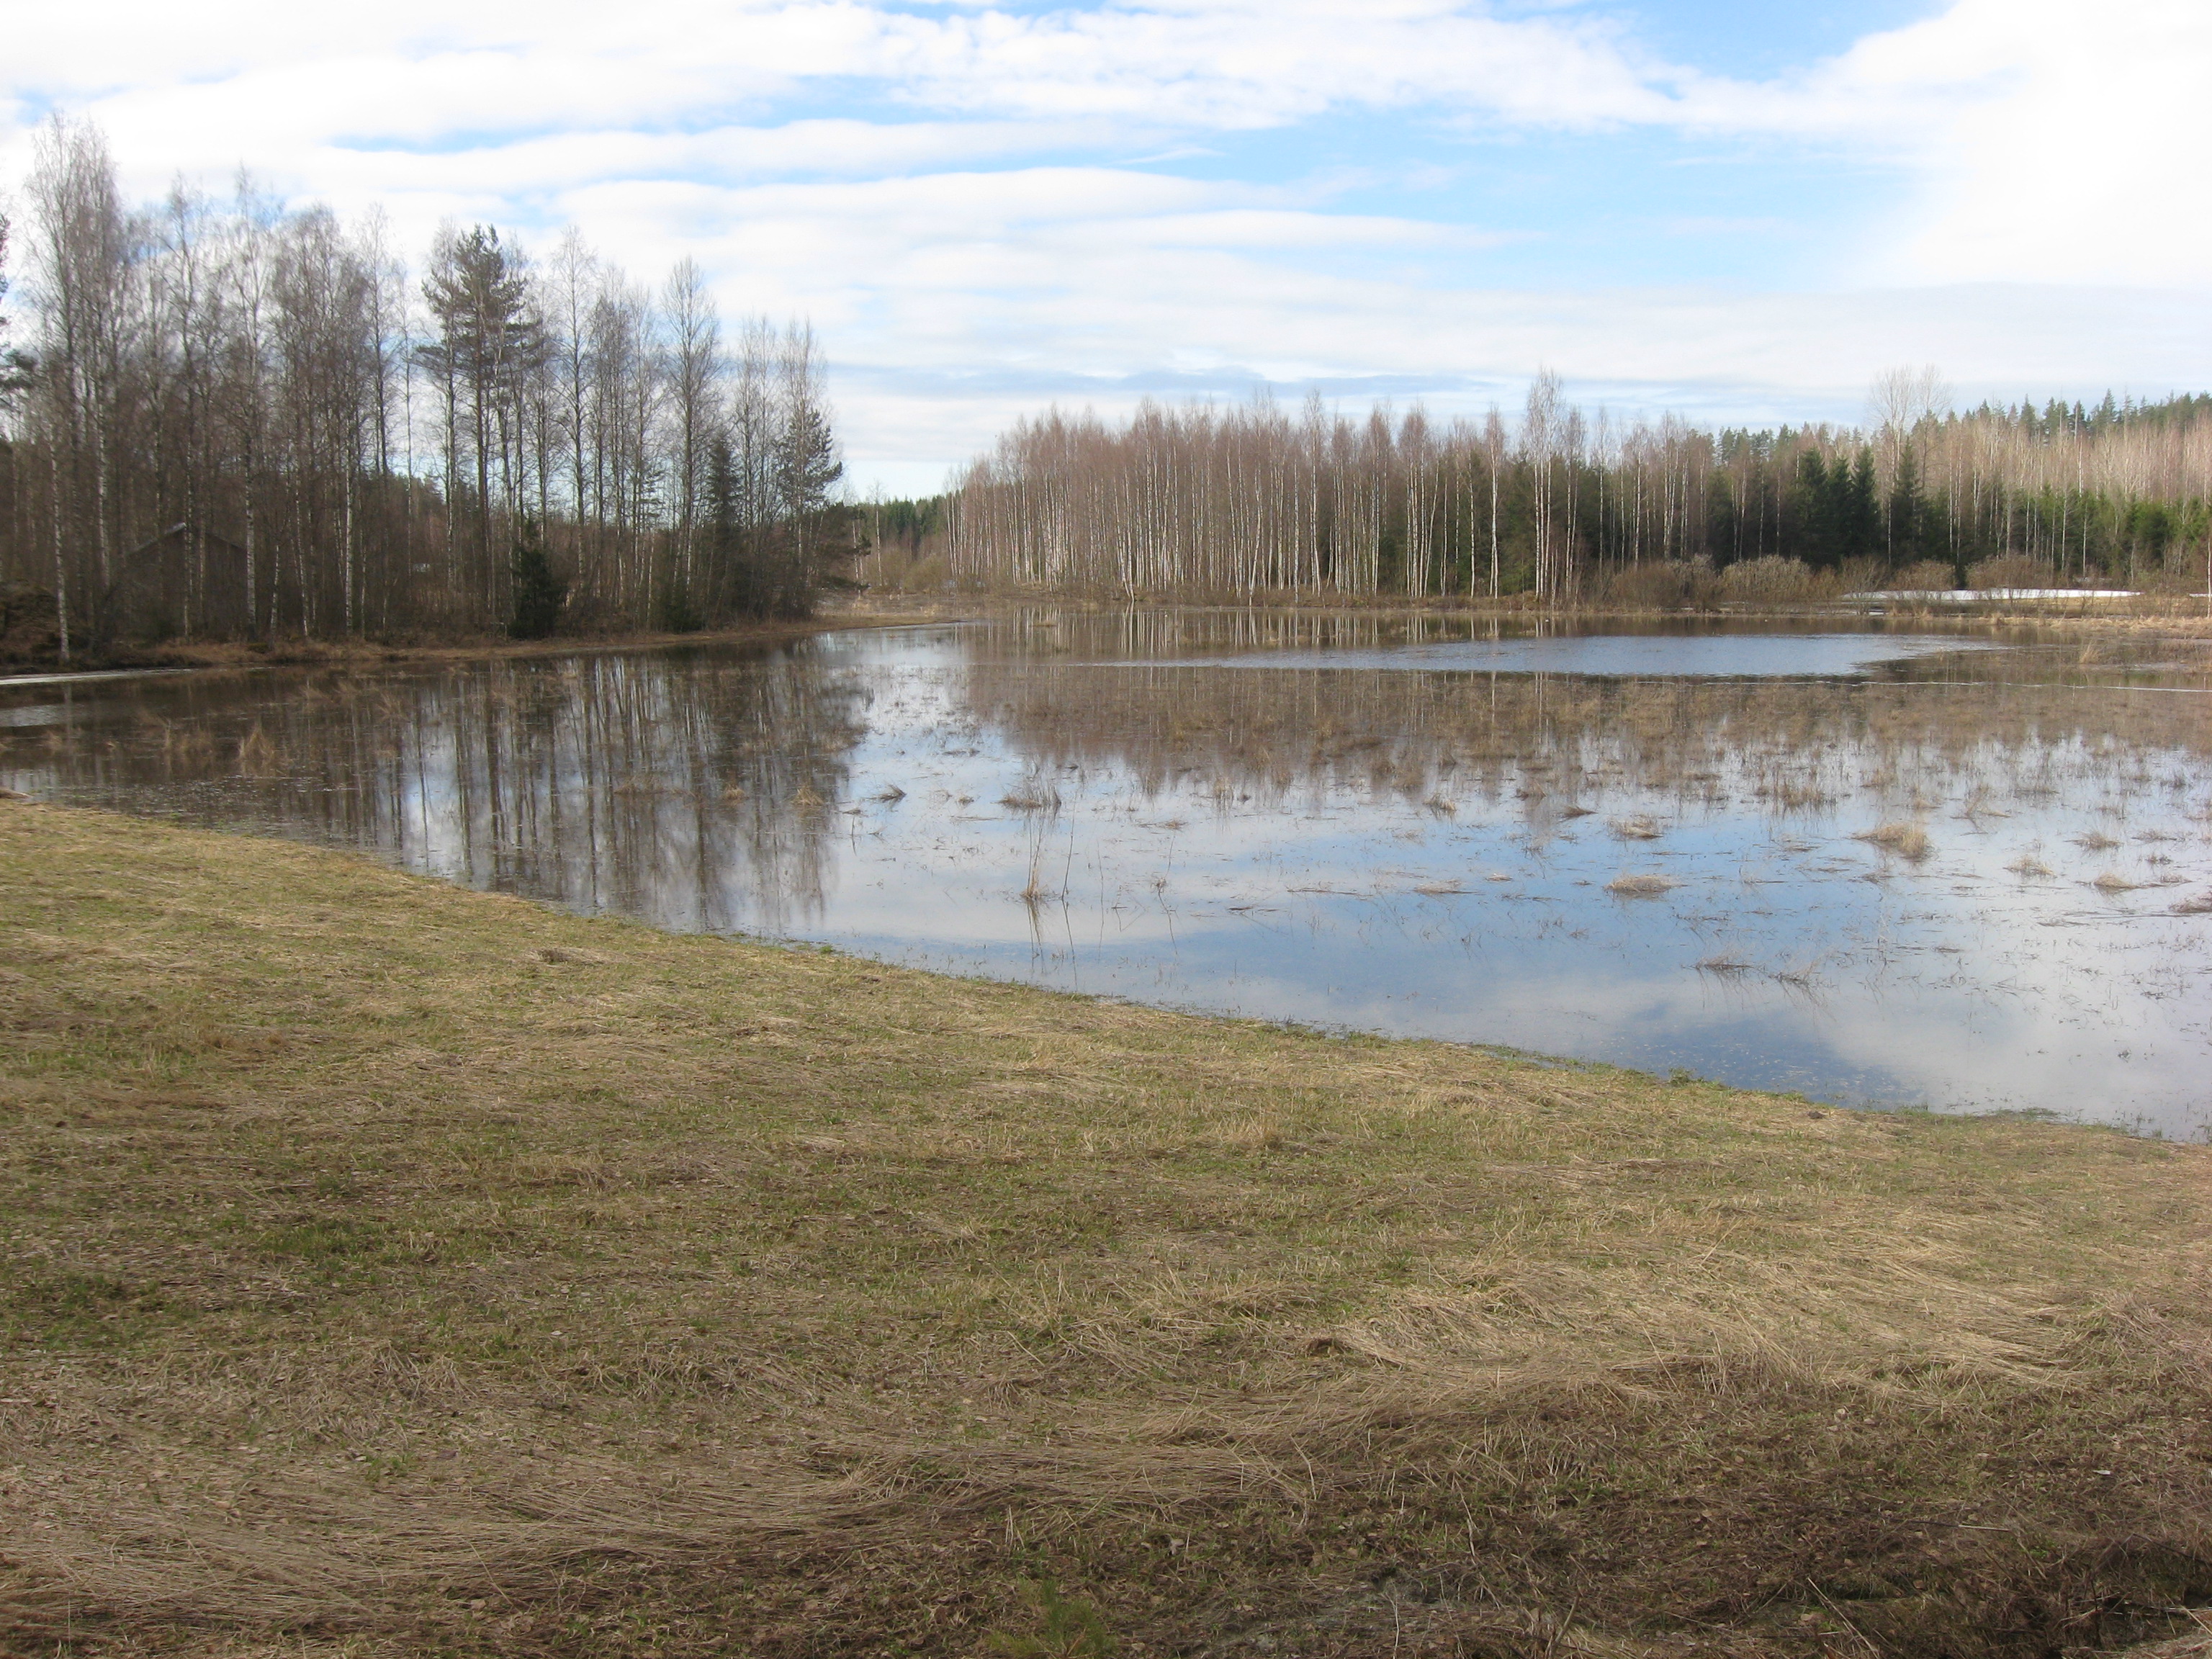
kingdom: Animalia
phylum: Chordata
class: Aves
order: Anseriformes
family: Anatidae
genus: Anas
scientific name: Anas crecca
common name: Eurasian teal
